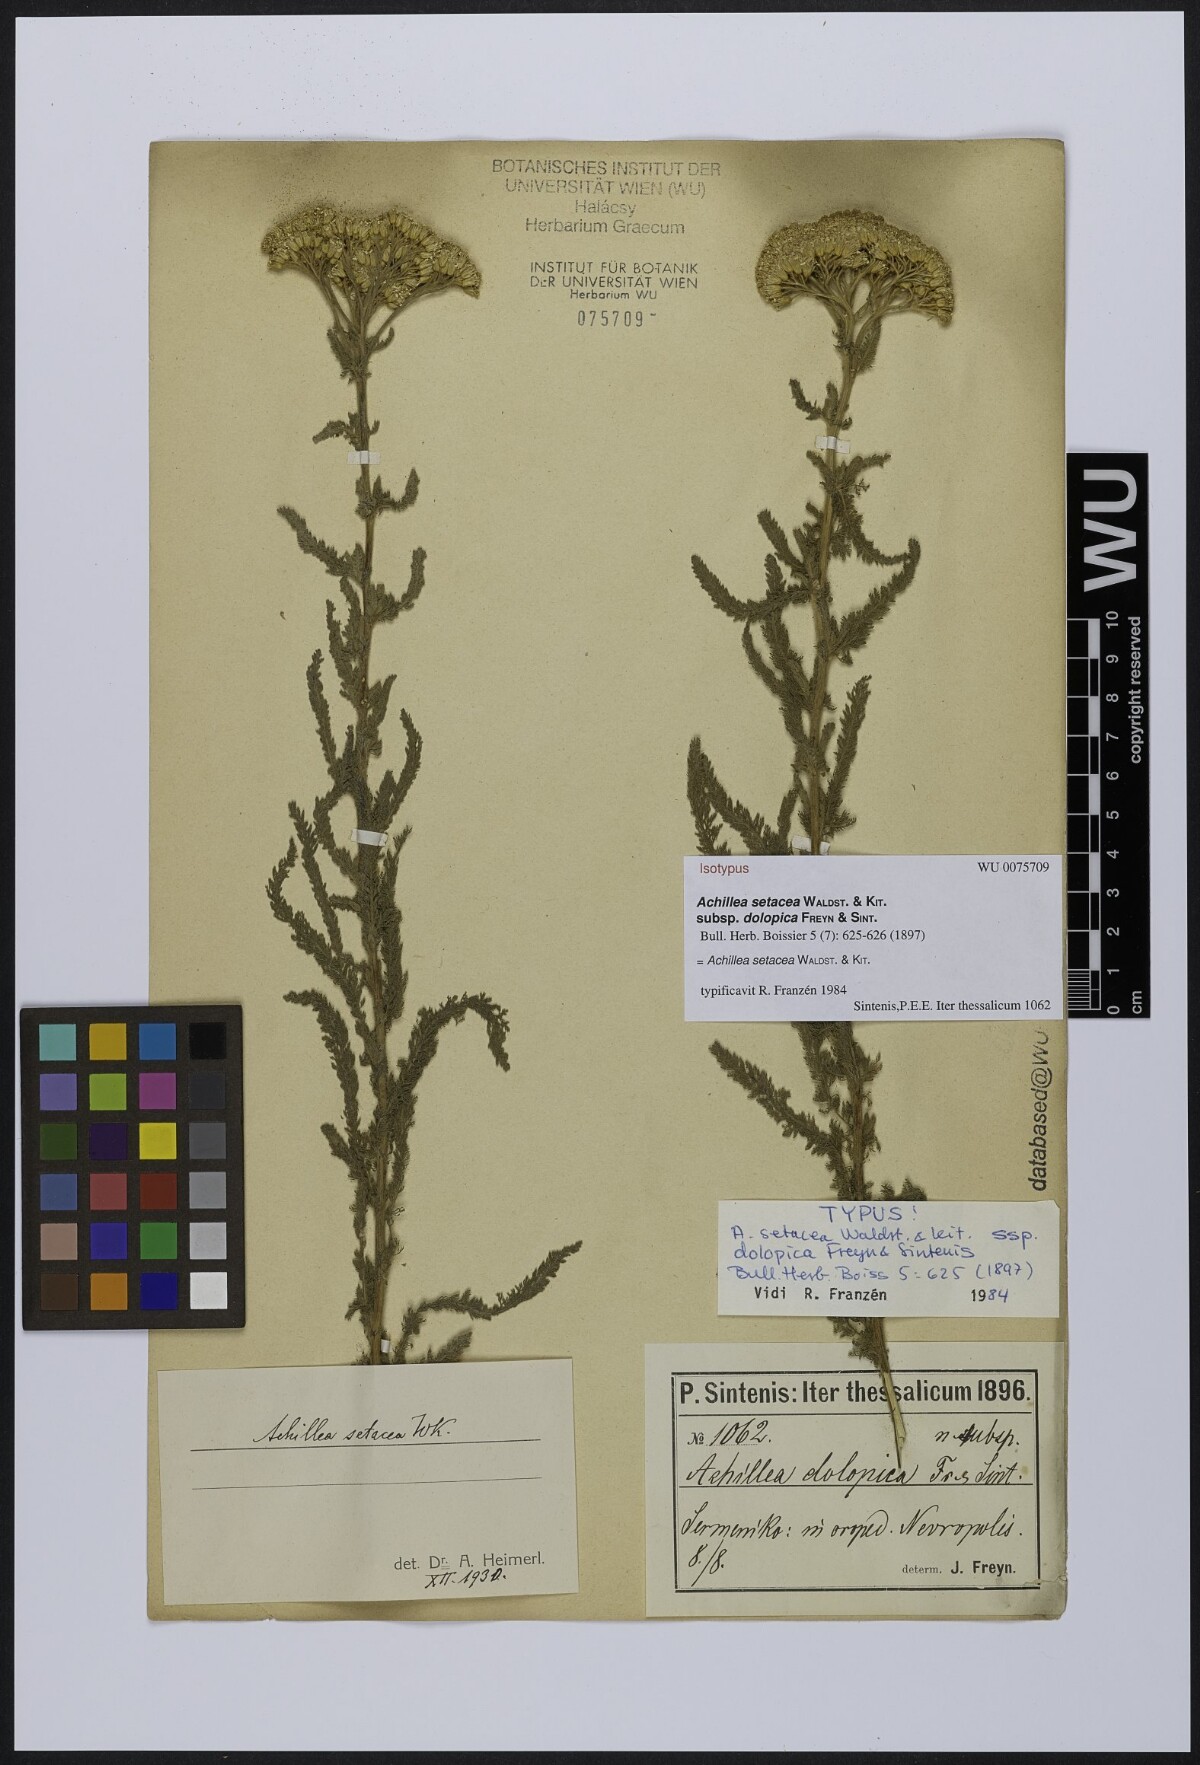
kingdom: Plantae
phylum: Tracheophyta
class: Magnoliopsida
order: Asterales
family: Asteraceae
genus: Achillea
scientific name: Achillea setacea
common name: Bristly yarrow
